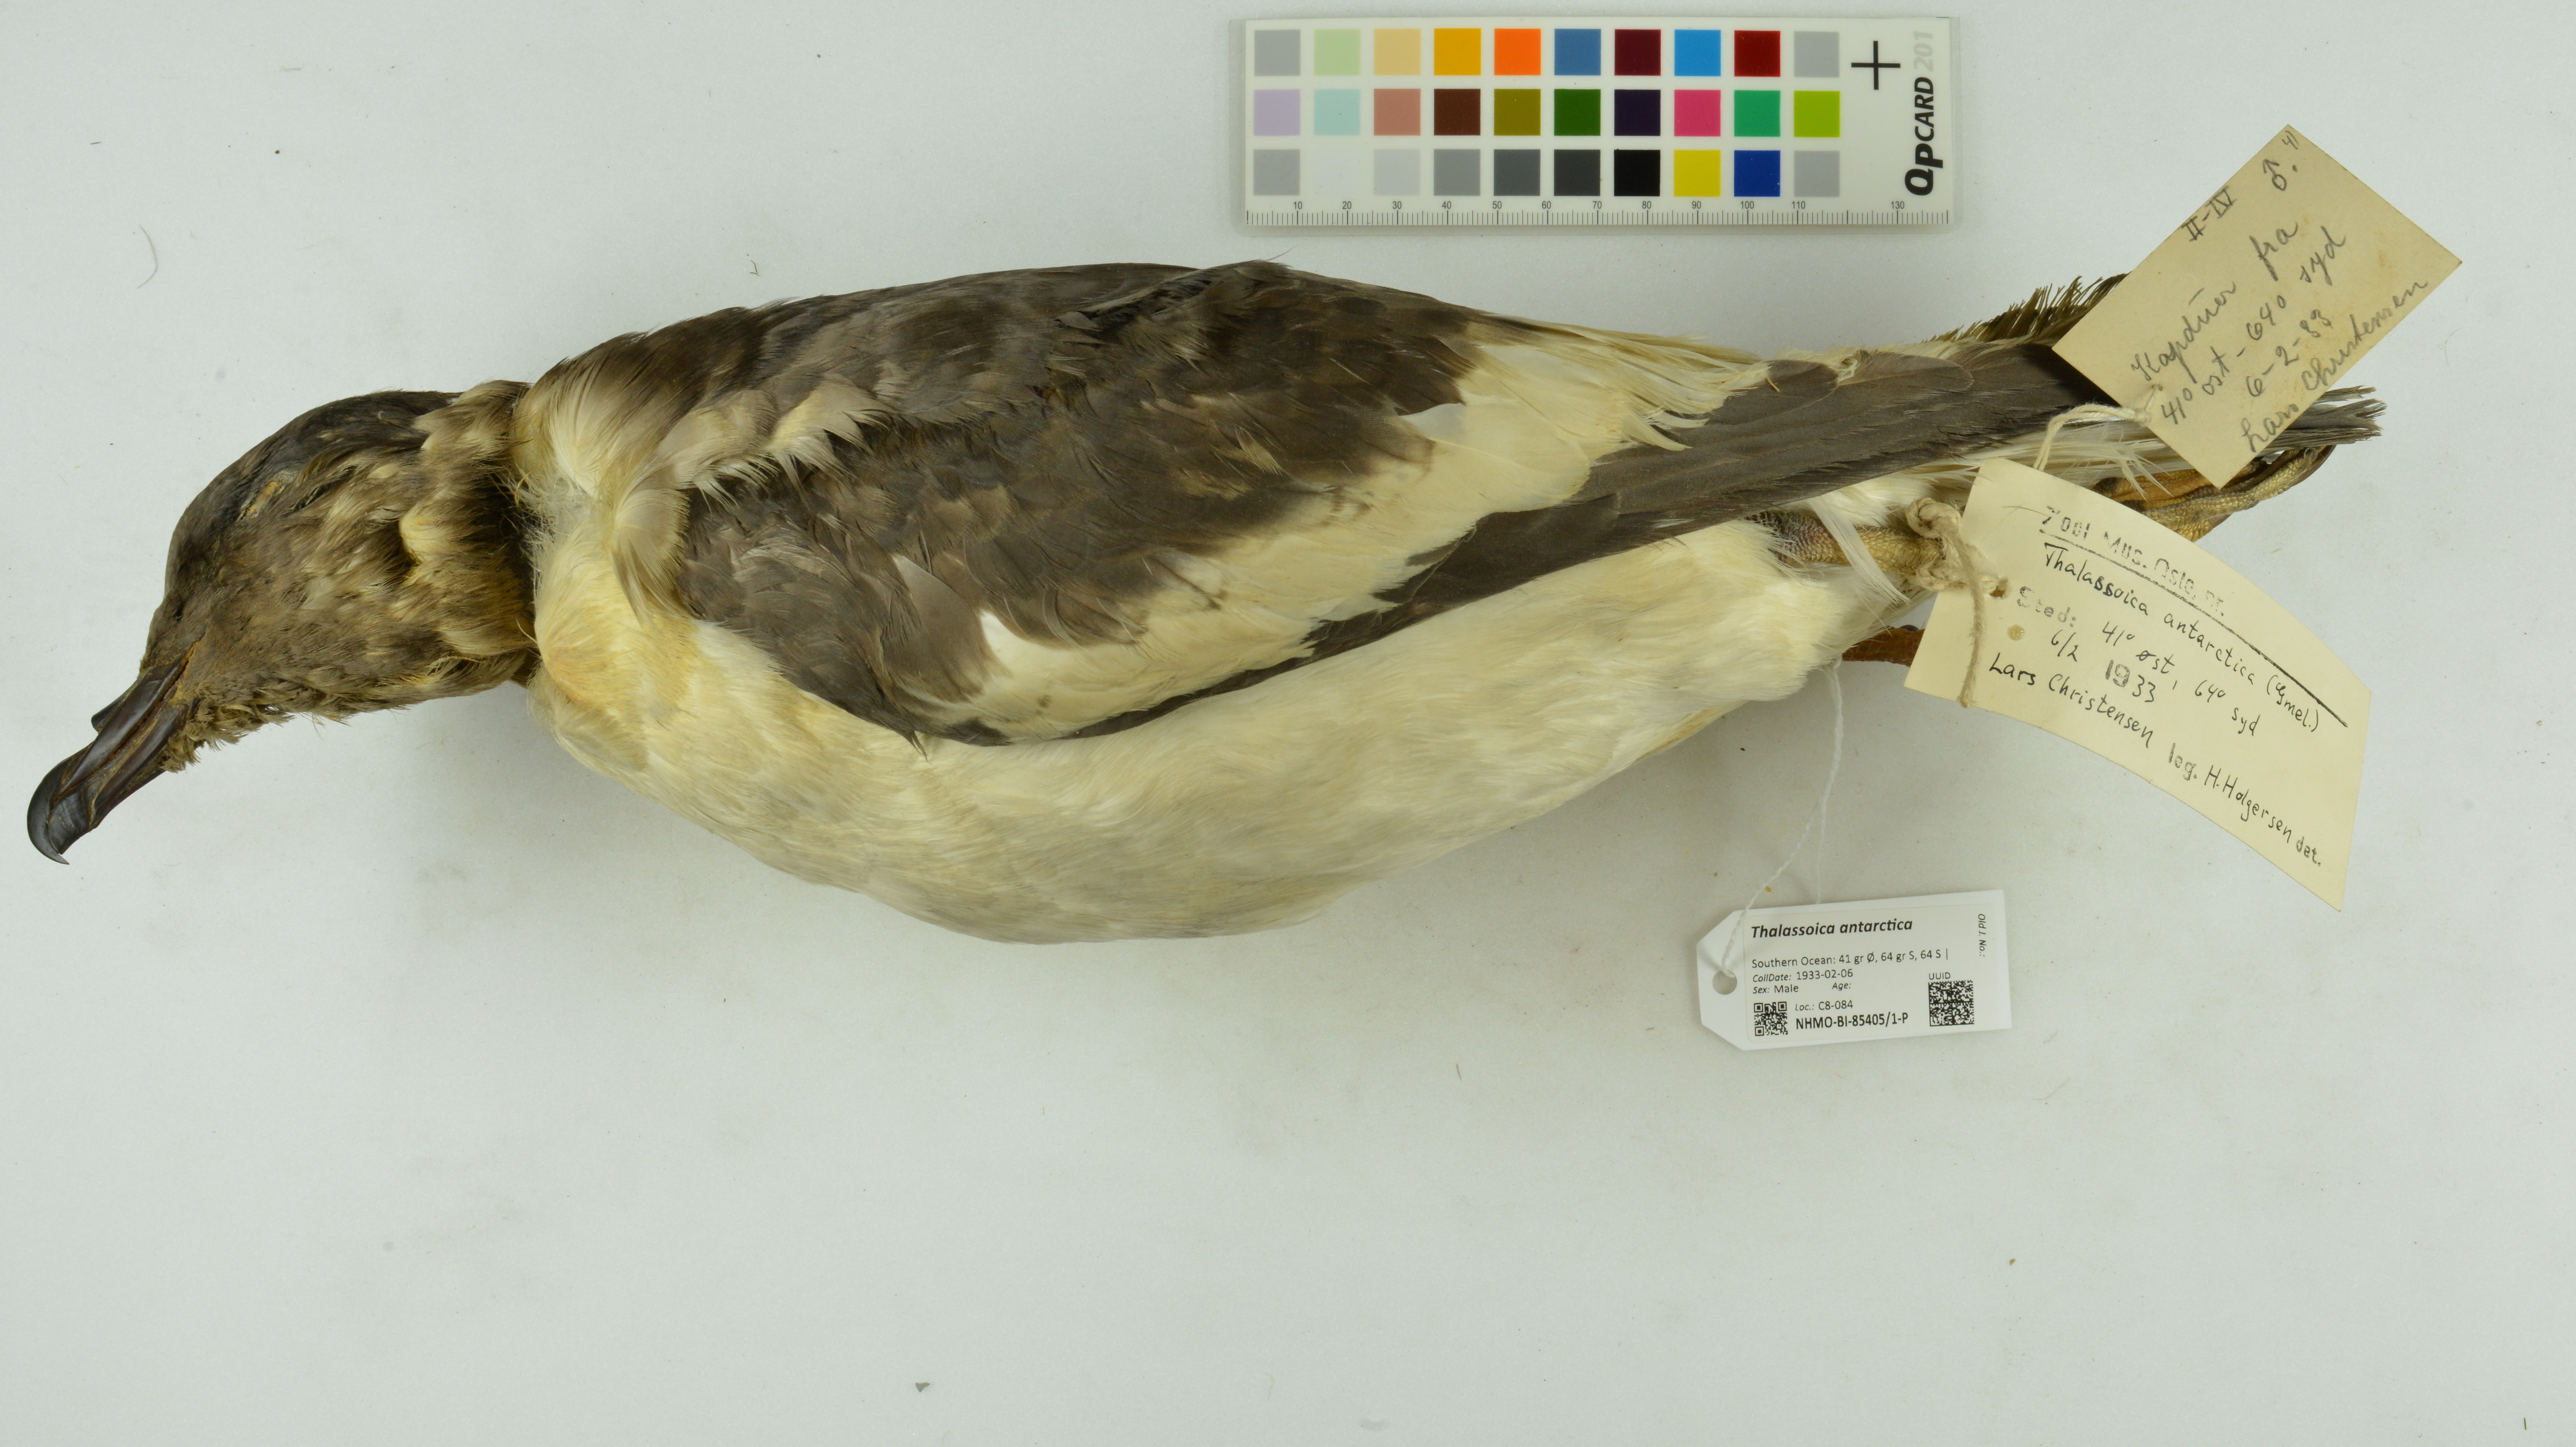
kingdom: Animalia
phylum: Chordata
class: Aves
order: Procellariiformes
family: Procellariidae
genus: Thalassoica
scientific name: Thalassoica antarctica
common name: Antarctic petrel
